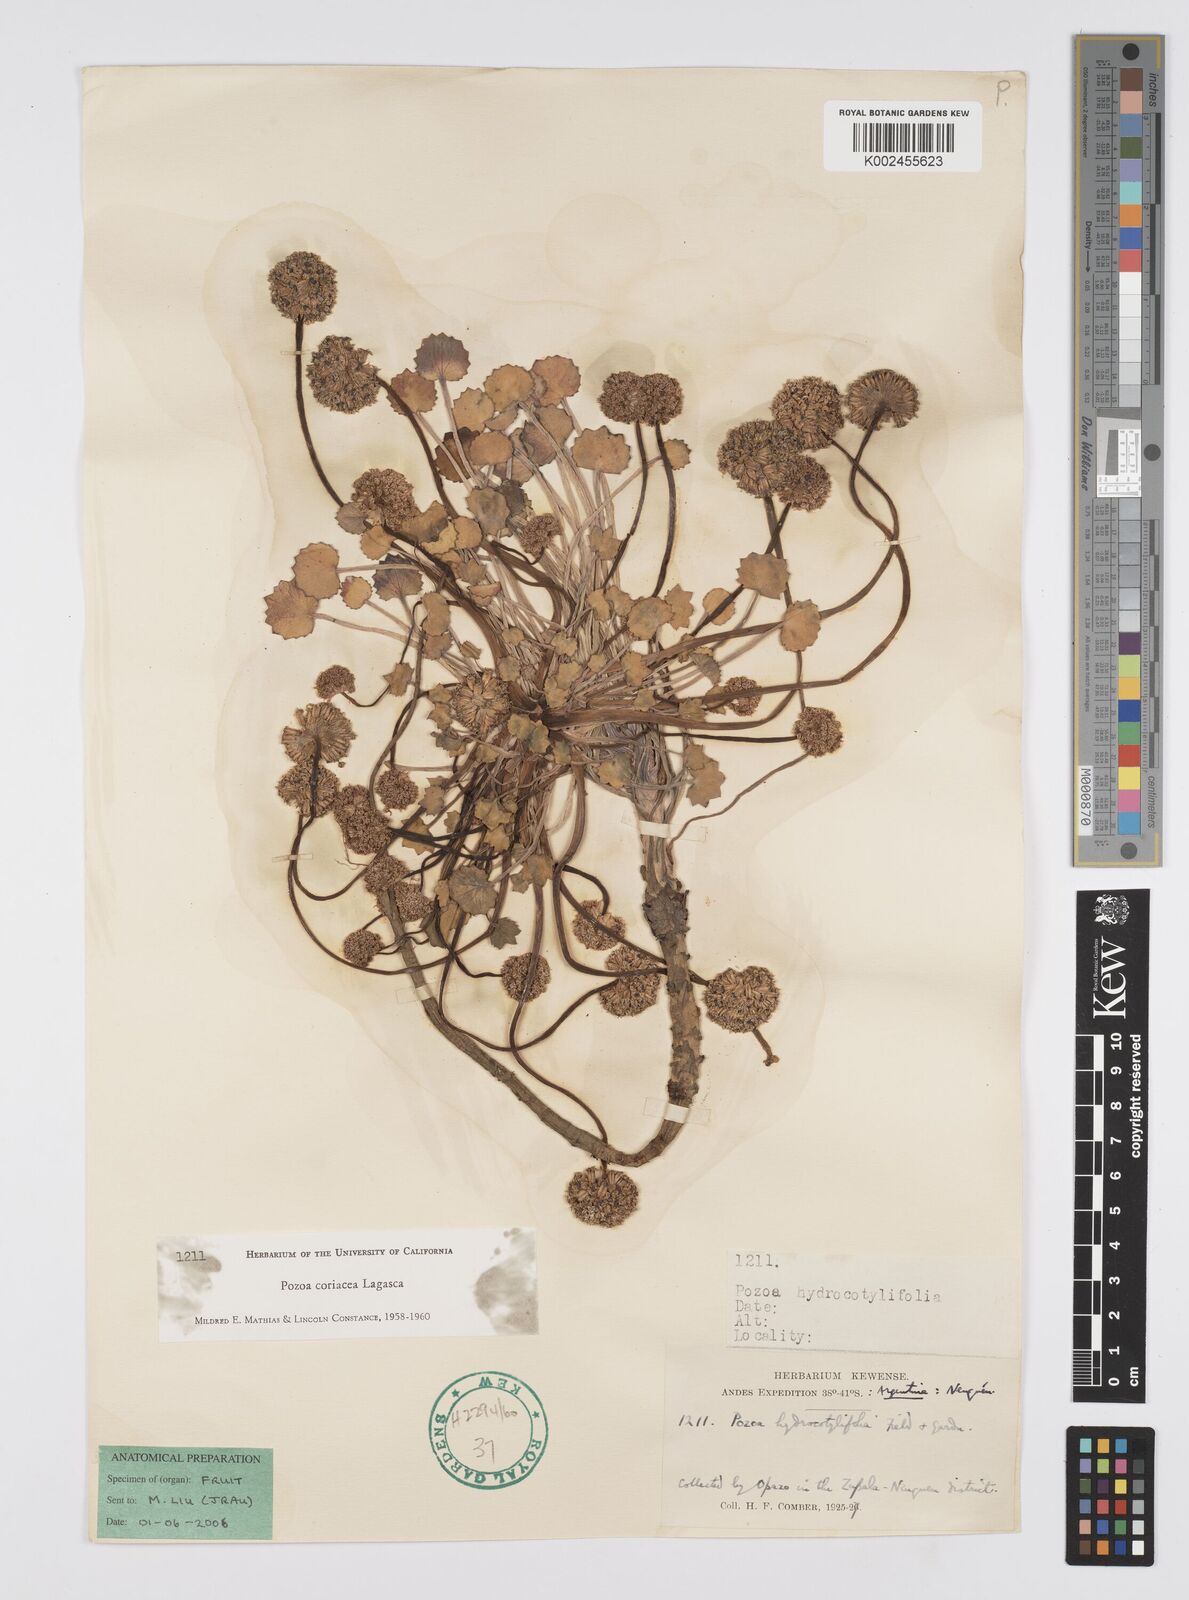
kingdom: Plantae
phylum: Tracheophyta
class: Magnoliopsida
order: Apiales
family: Apiaceae
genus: Pozoa
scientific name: Pozoa coriacea
